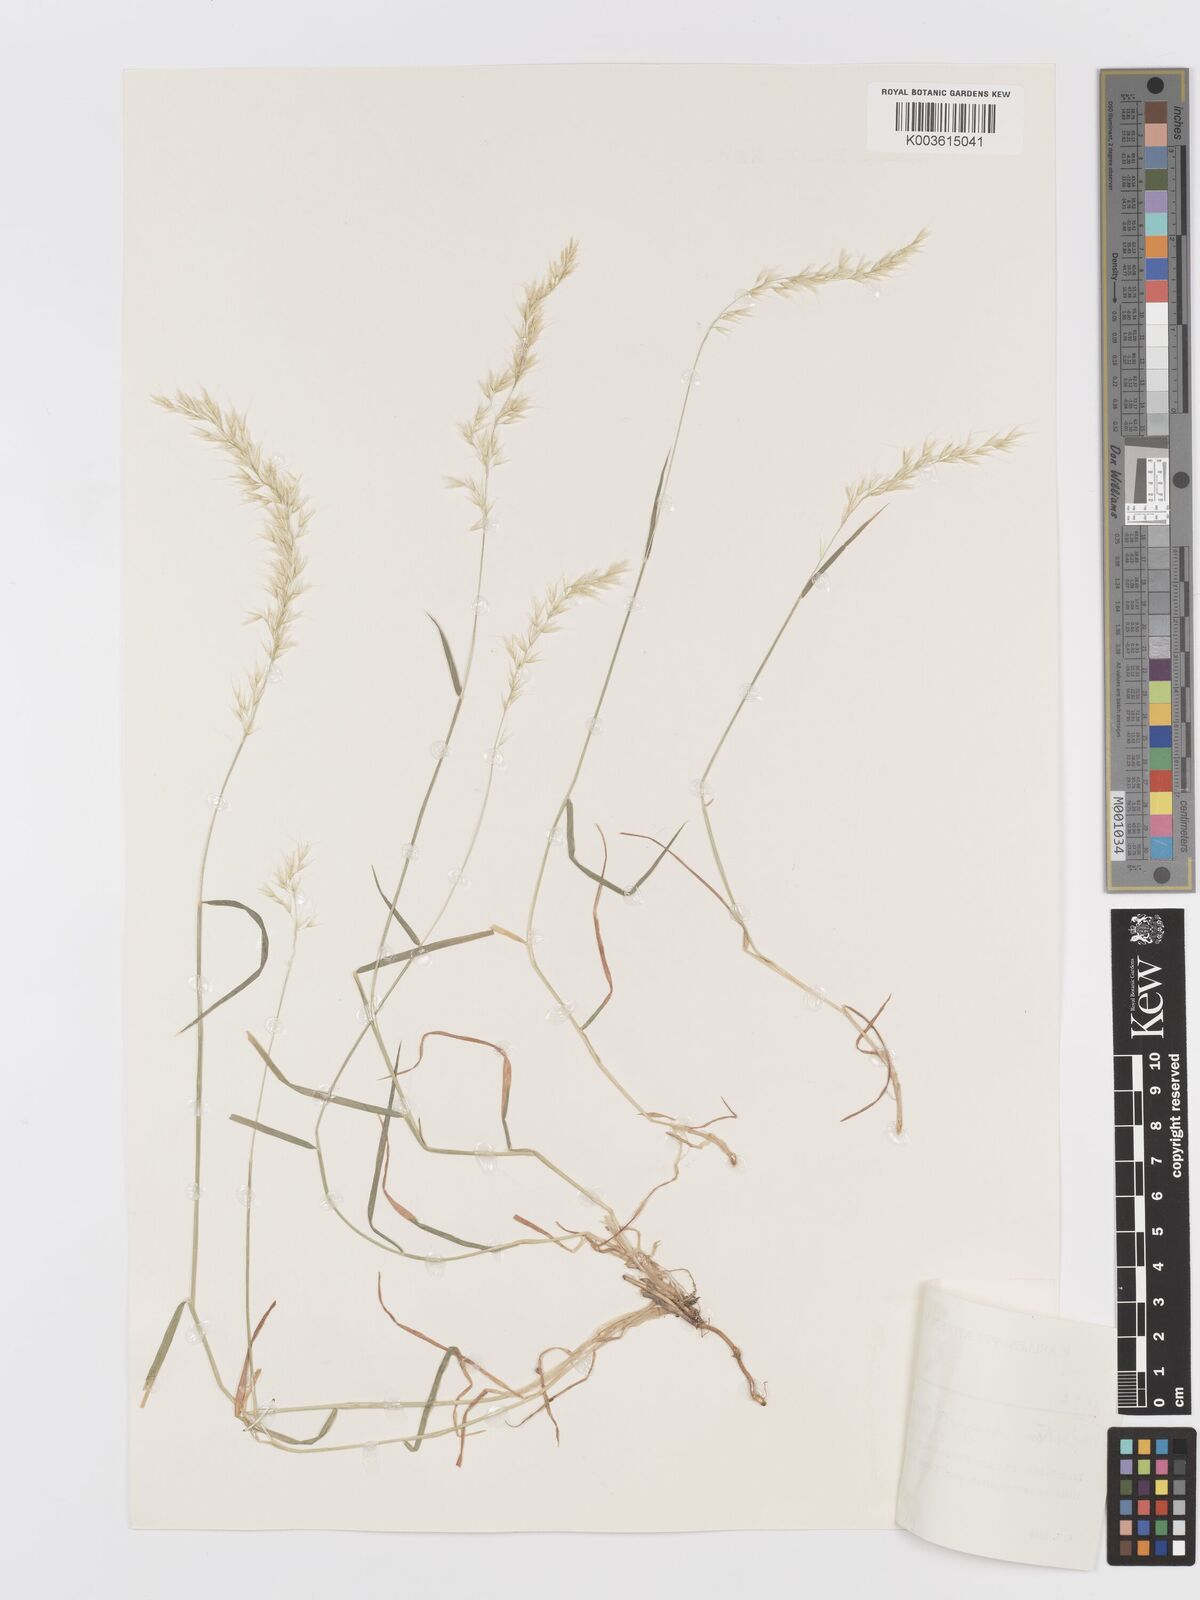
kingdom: Plantae
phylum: Tracheophyta
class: Liliopsida
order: Poales
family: Poaceae
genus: Trisetum
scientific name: Trisetum rigidum
